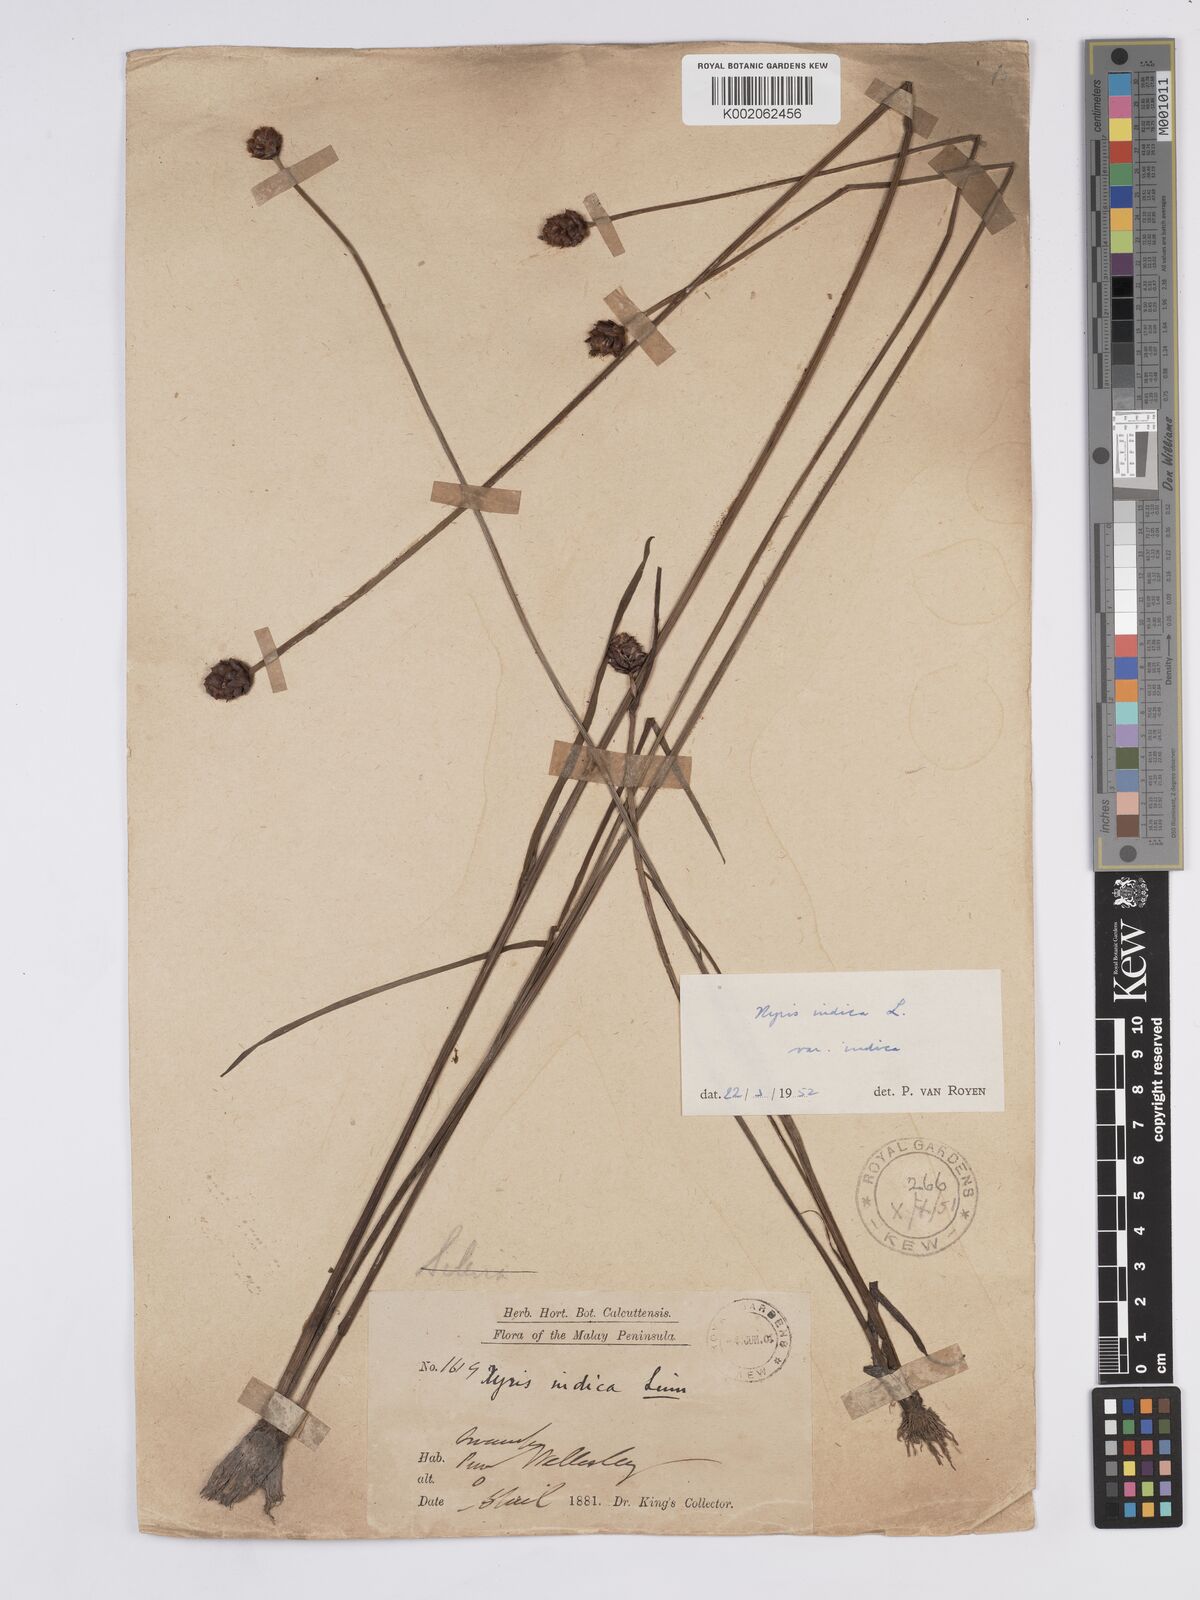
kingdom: Plantae
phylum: Tracheophyta
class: Liliopsida
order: Poales
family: Xyridaceae
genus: Xyris
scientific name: Xyris indica
